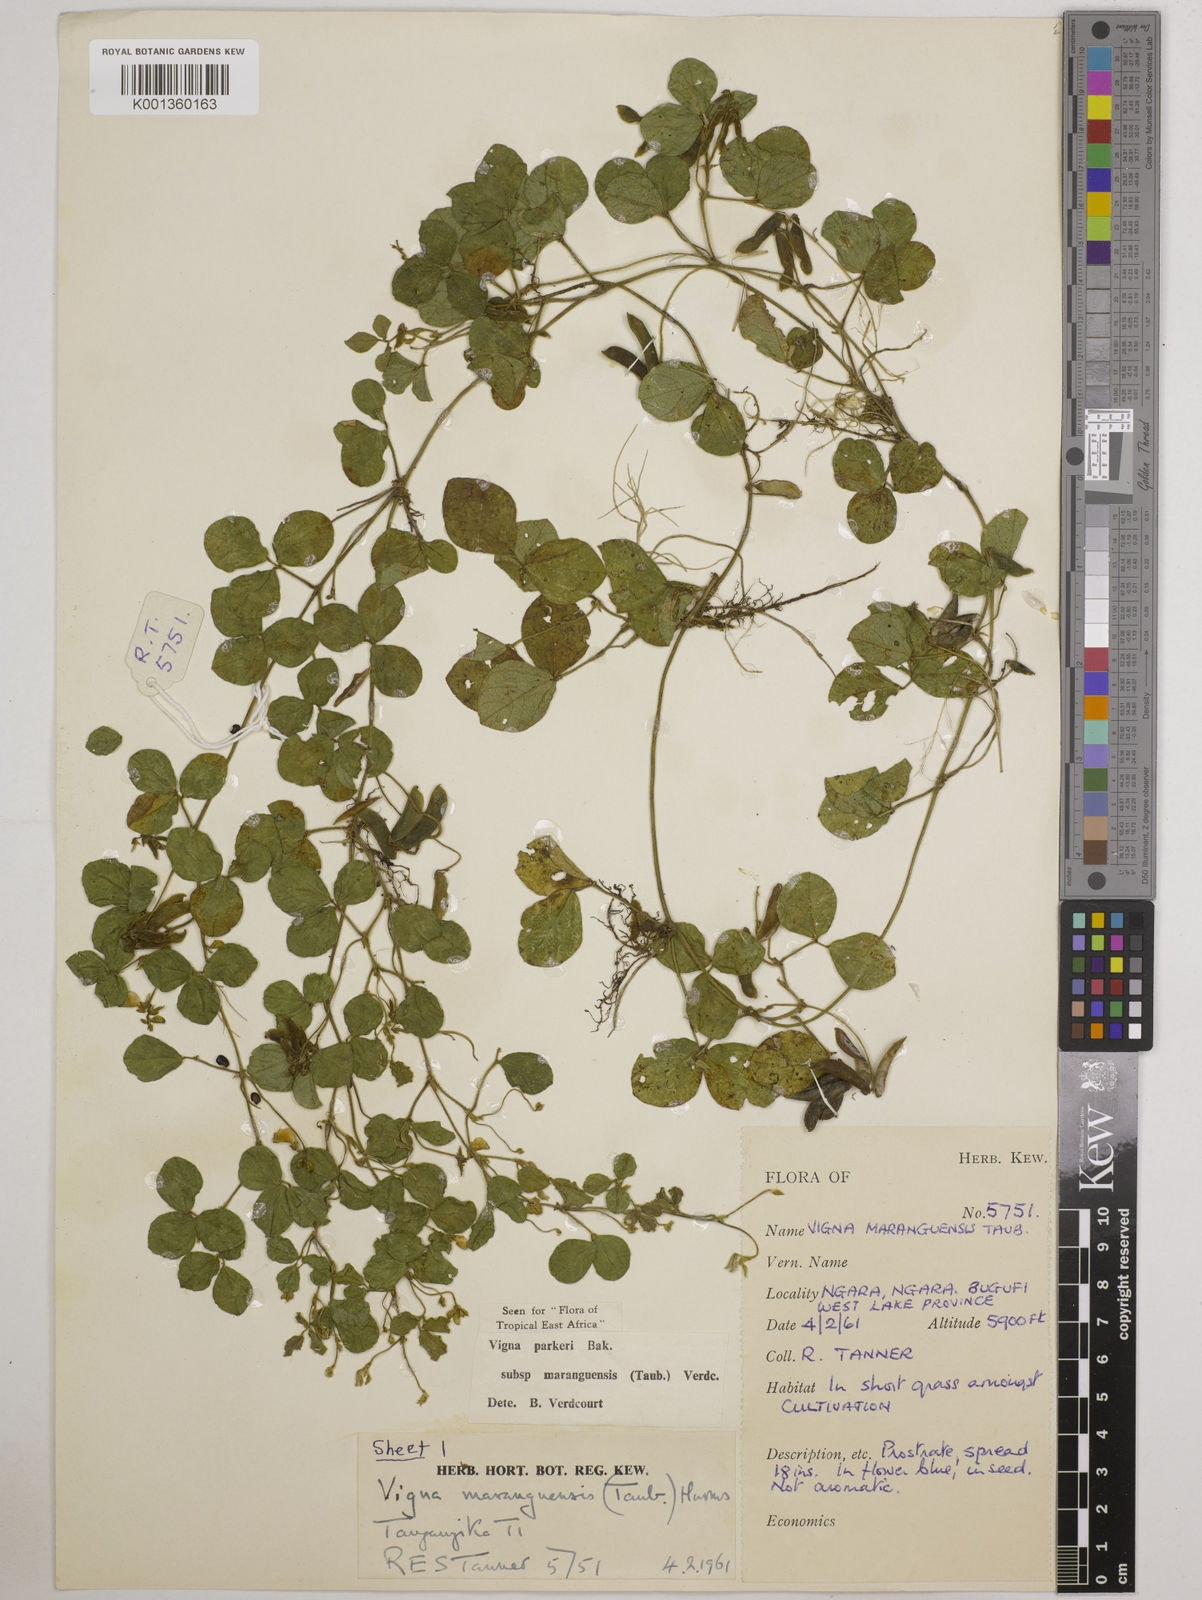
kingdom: Plantae
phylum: Tracheophyta
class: Magnoliopsida
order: Fabales
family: Fabaceae
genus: Vigna
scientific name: Vigna
